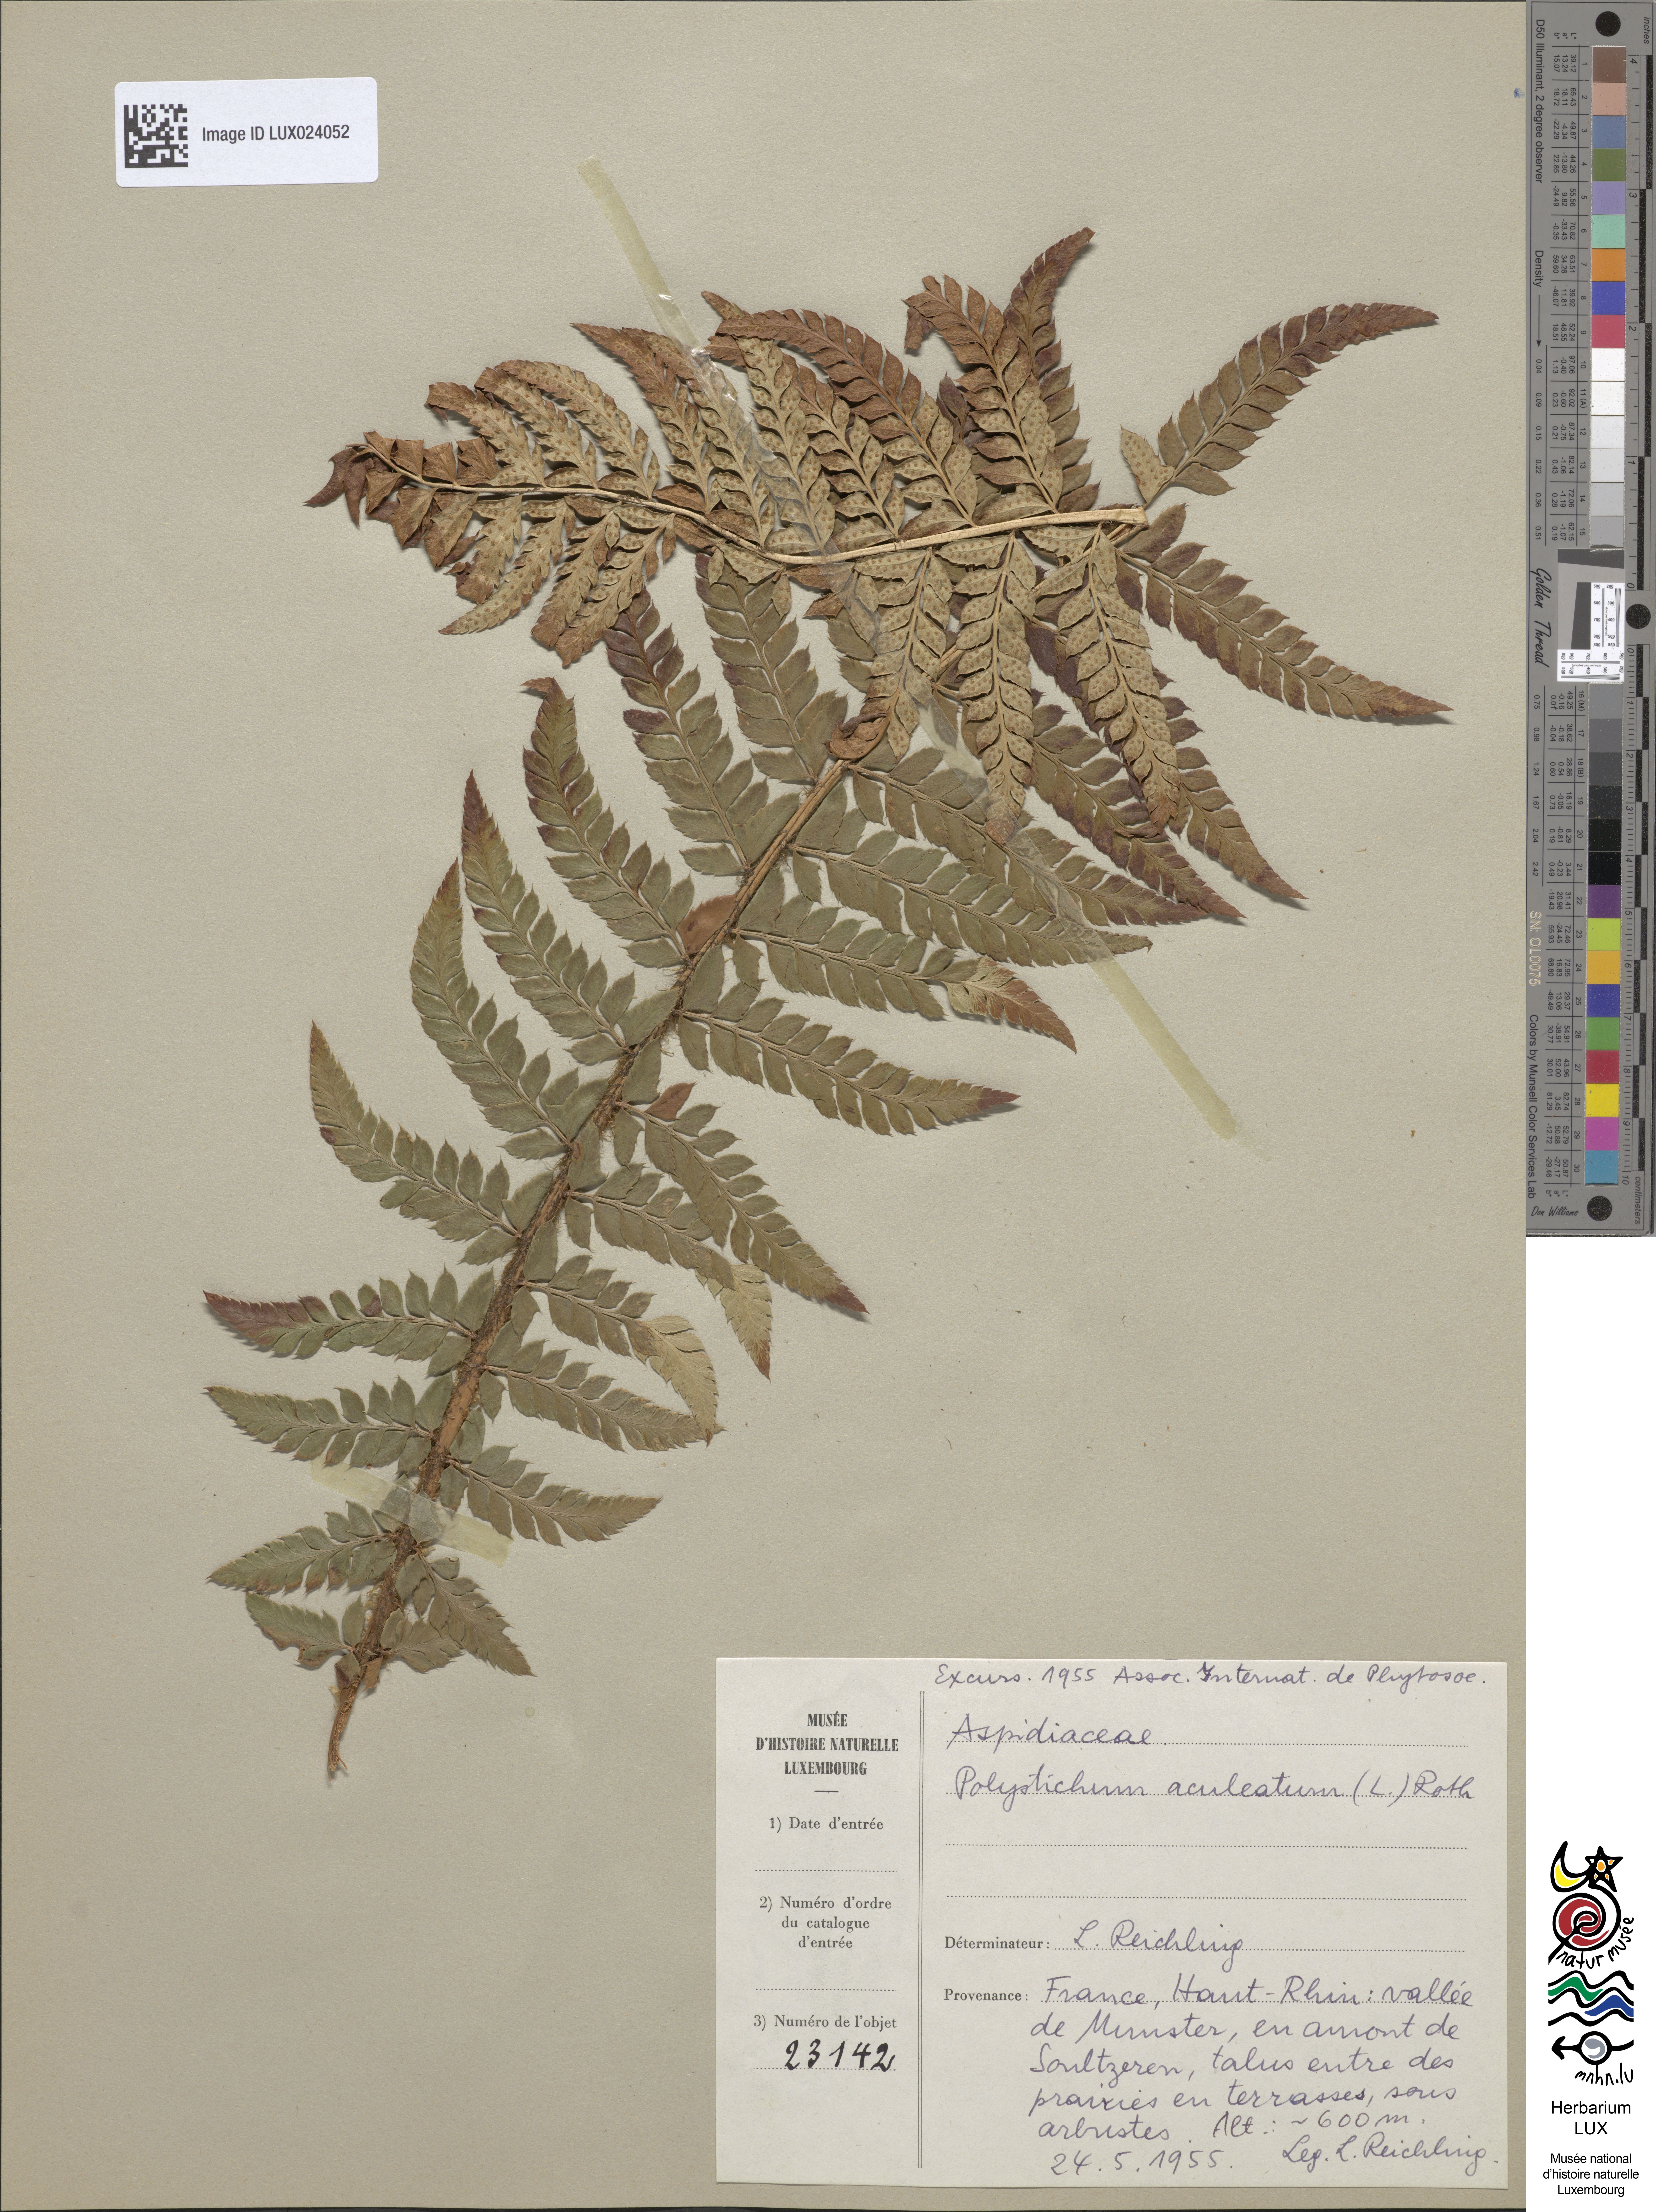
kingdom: Plantae
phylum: Tracheophyta
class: Polypodiopsida
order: Polypodiales
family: Dryopteridaceae
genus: Polystichum
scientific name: Polystichum aculeatum
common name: Hard shield-fern
